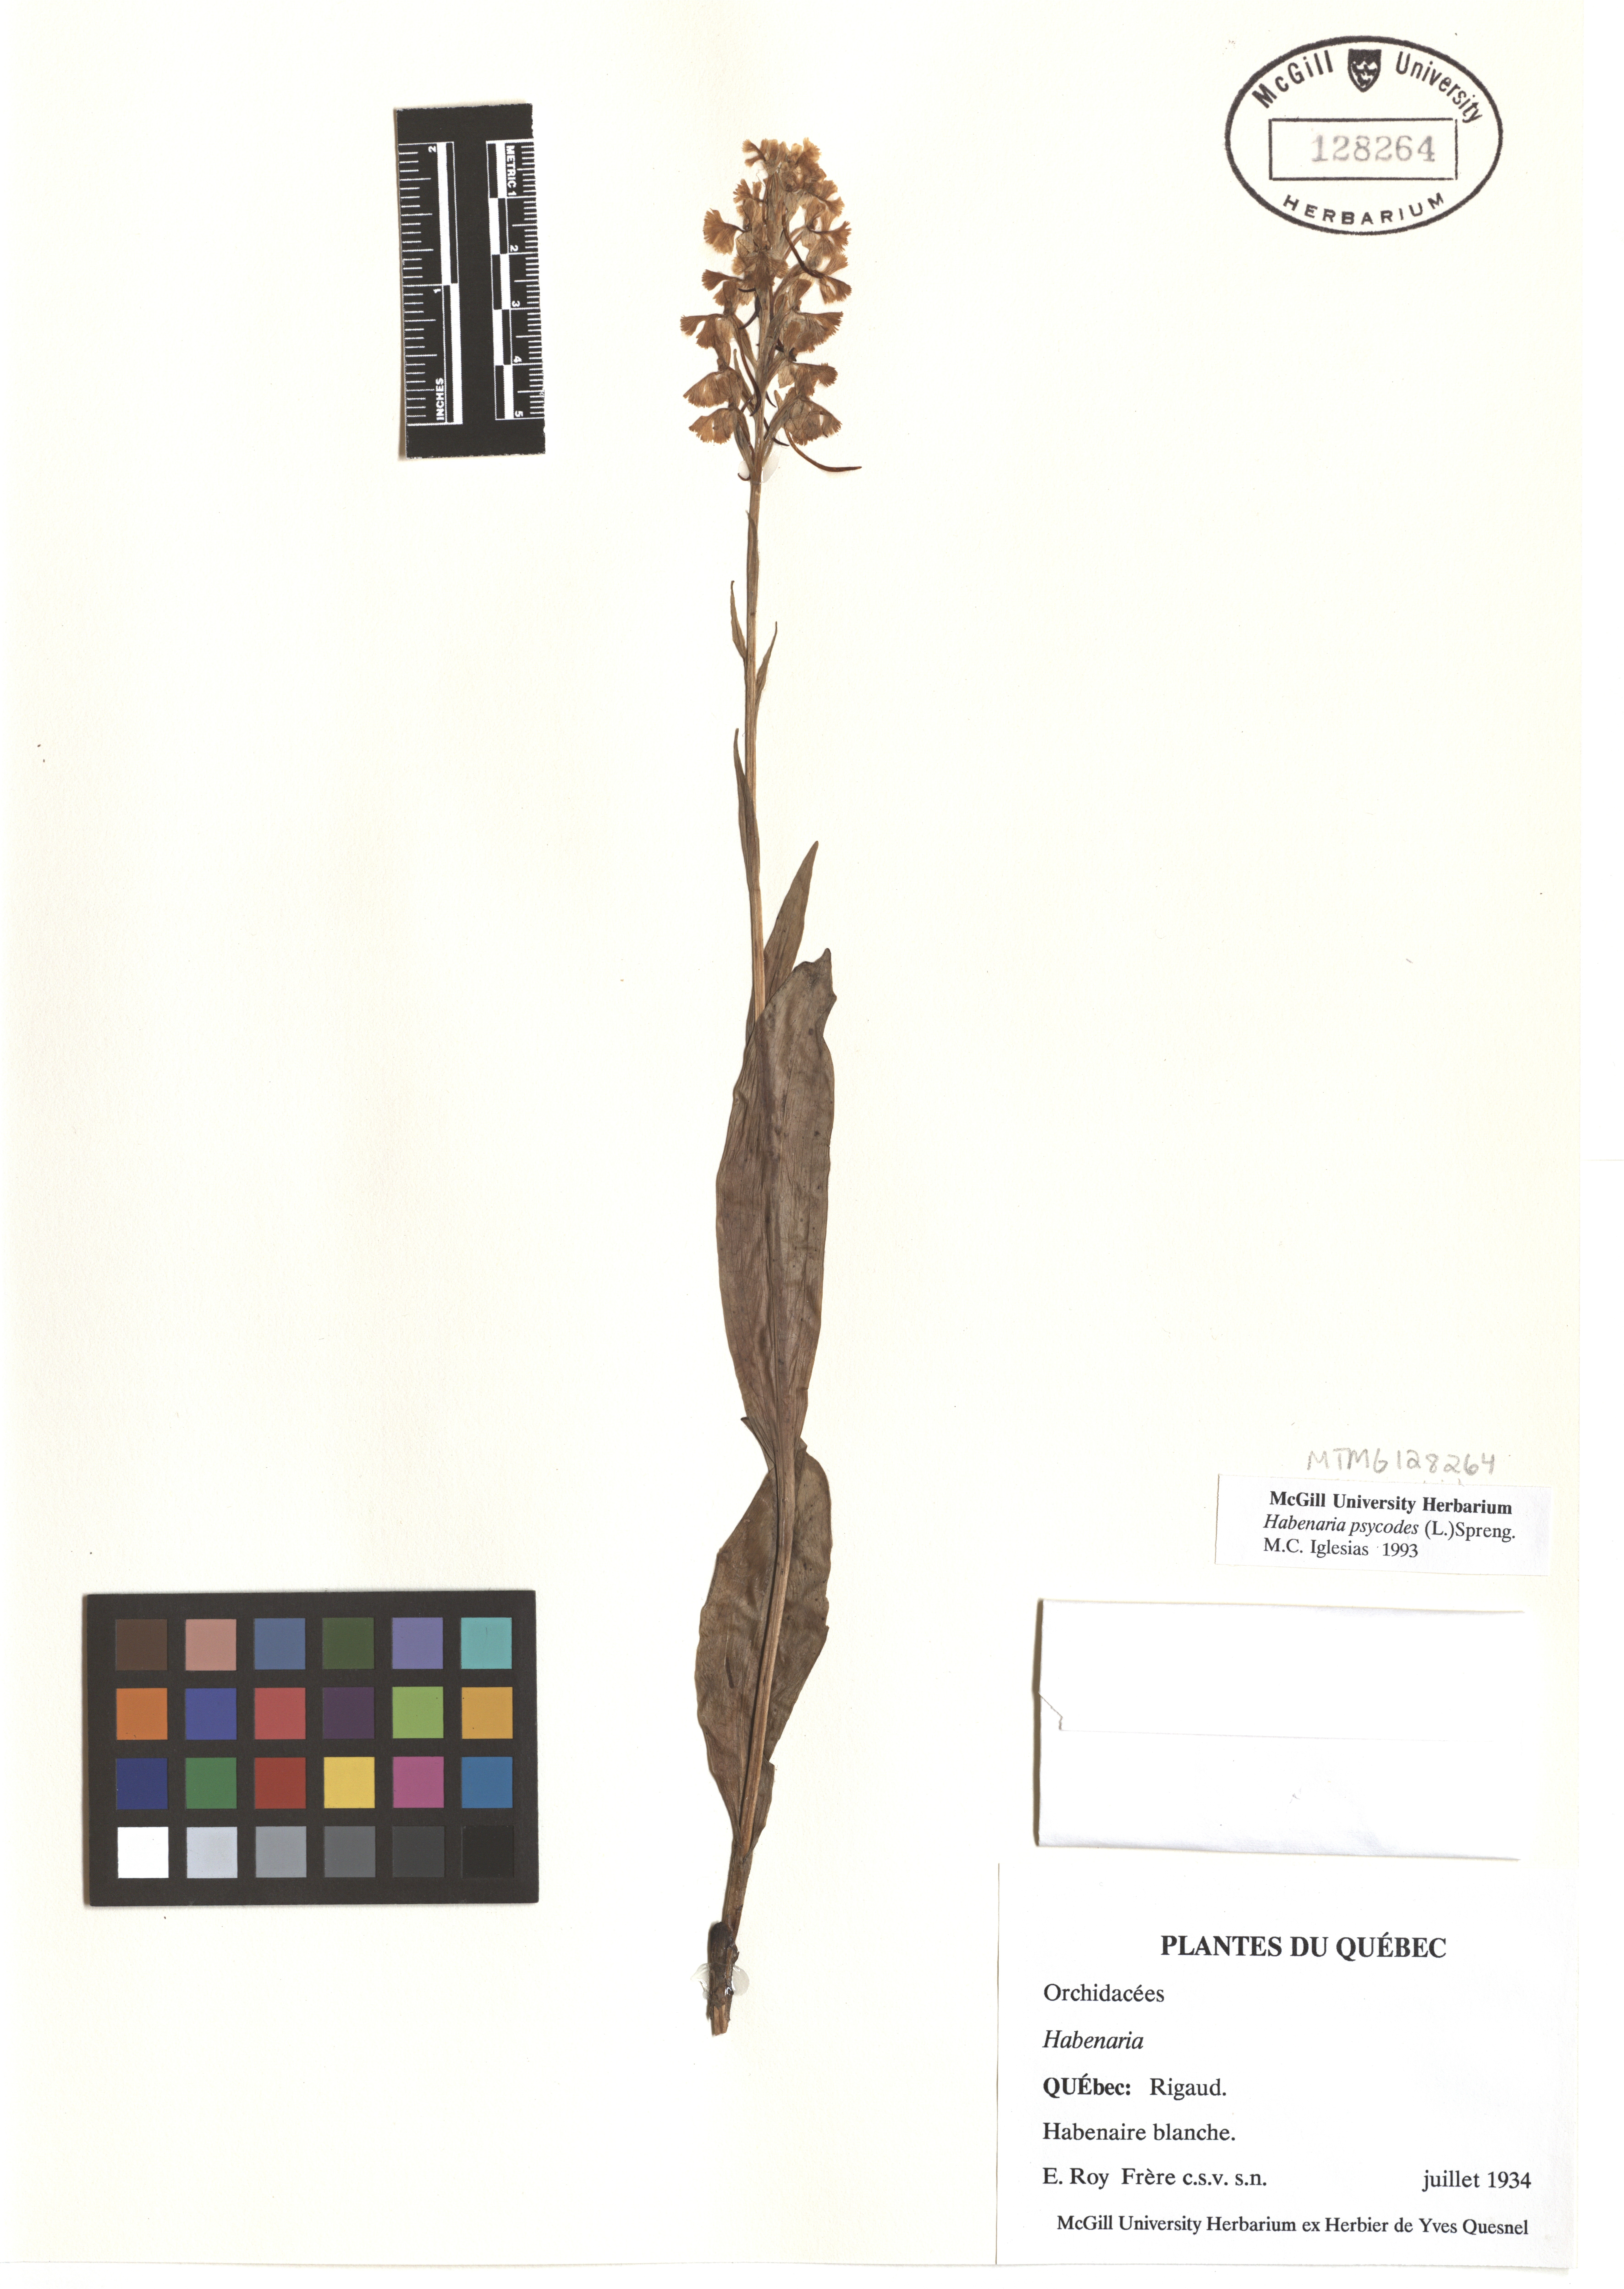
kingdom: Plantae
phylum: Tracheophyta
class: Liliopsida
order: Asparagales
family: Orchidaceae
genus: Platanthera
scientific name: Platanthera psycodes
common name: Lesser purple fringed orchid
